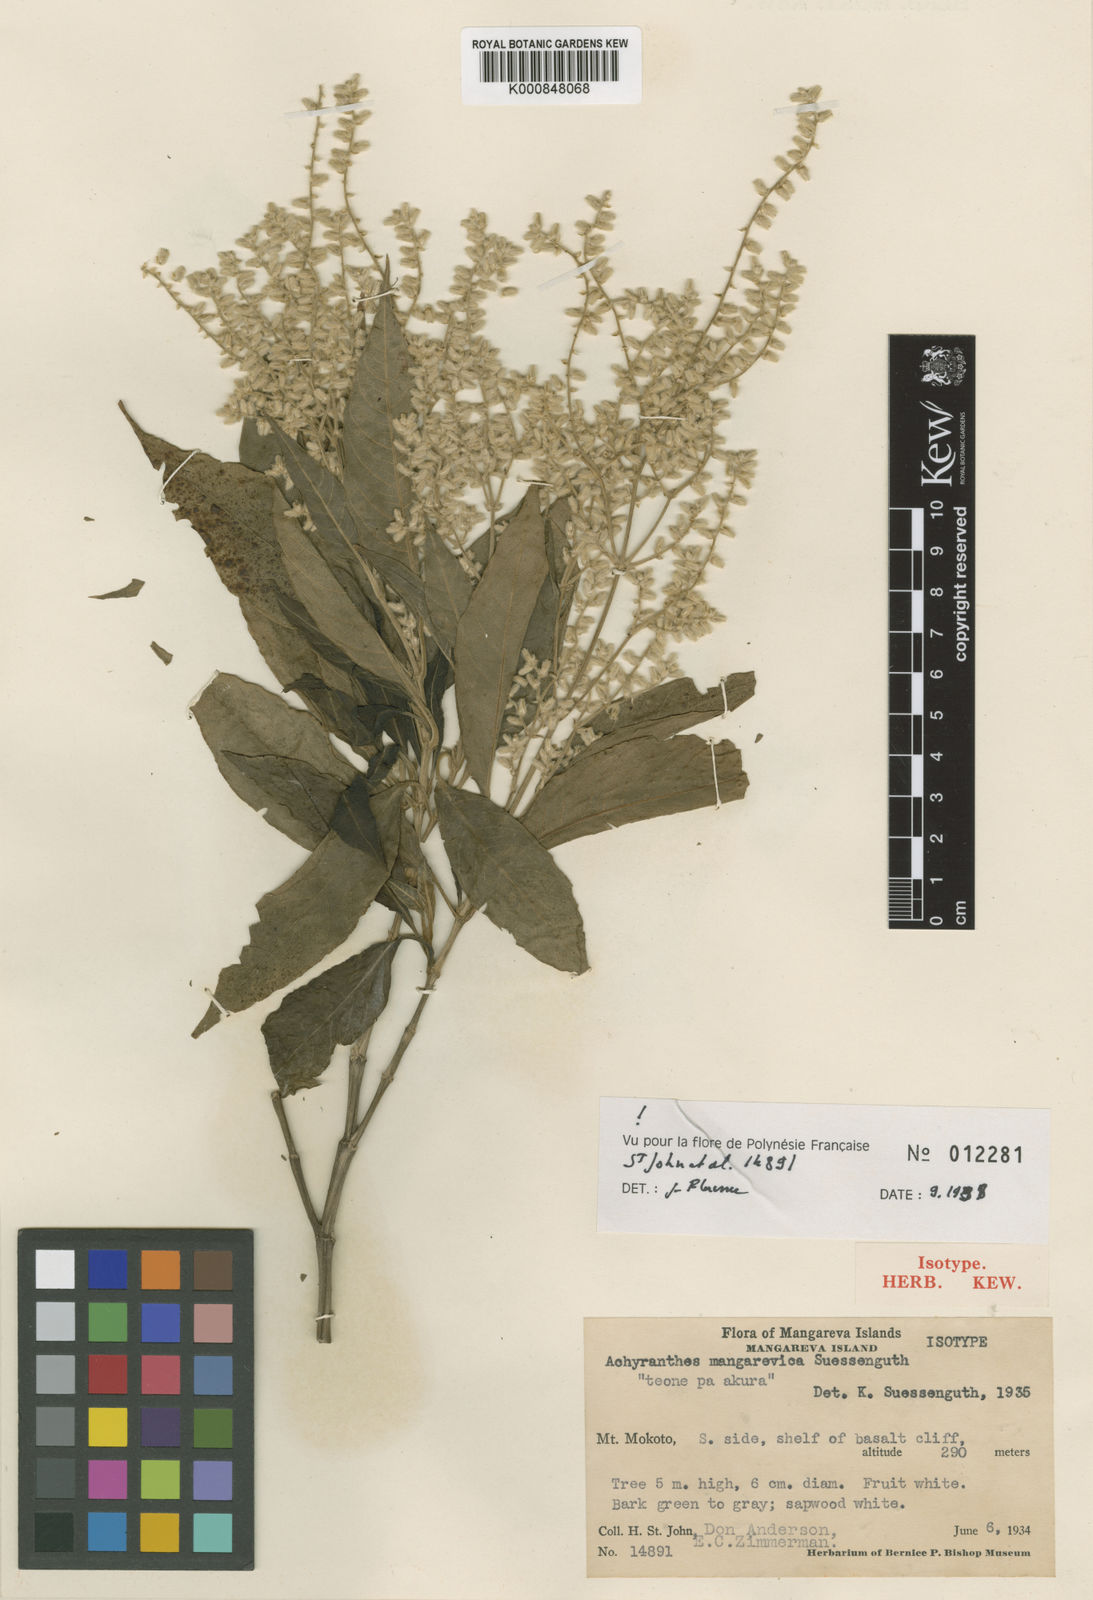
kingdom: Plantae
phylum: Tracheophyta
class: Magnoliopsida
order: Caryophyllales
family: Amaranthaceae
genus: Achyranthes
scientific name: Achyranthes mangarevica
